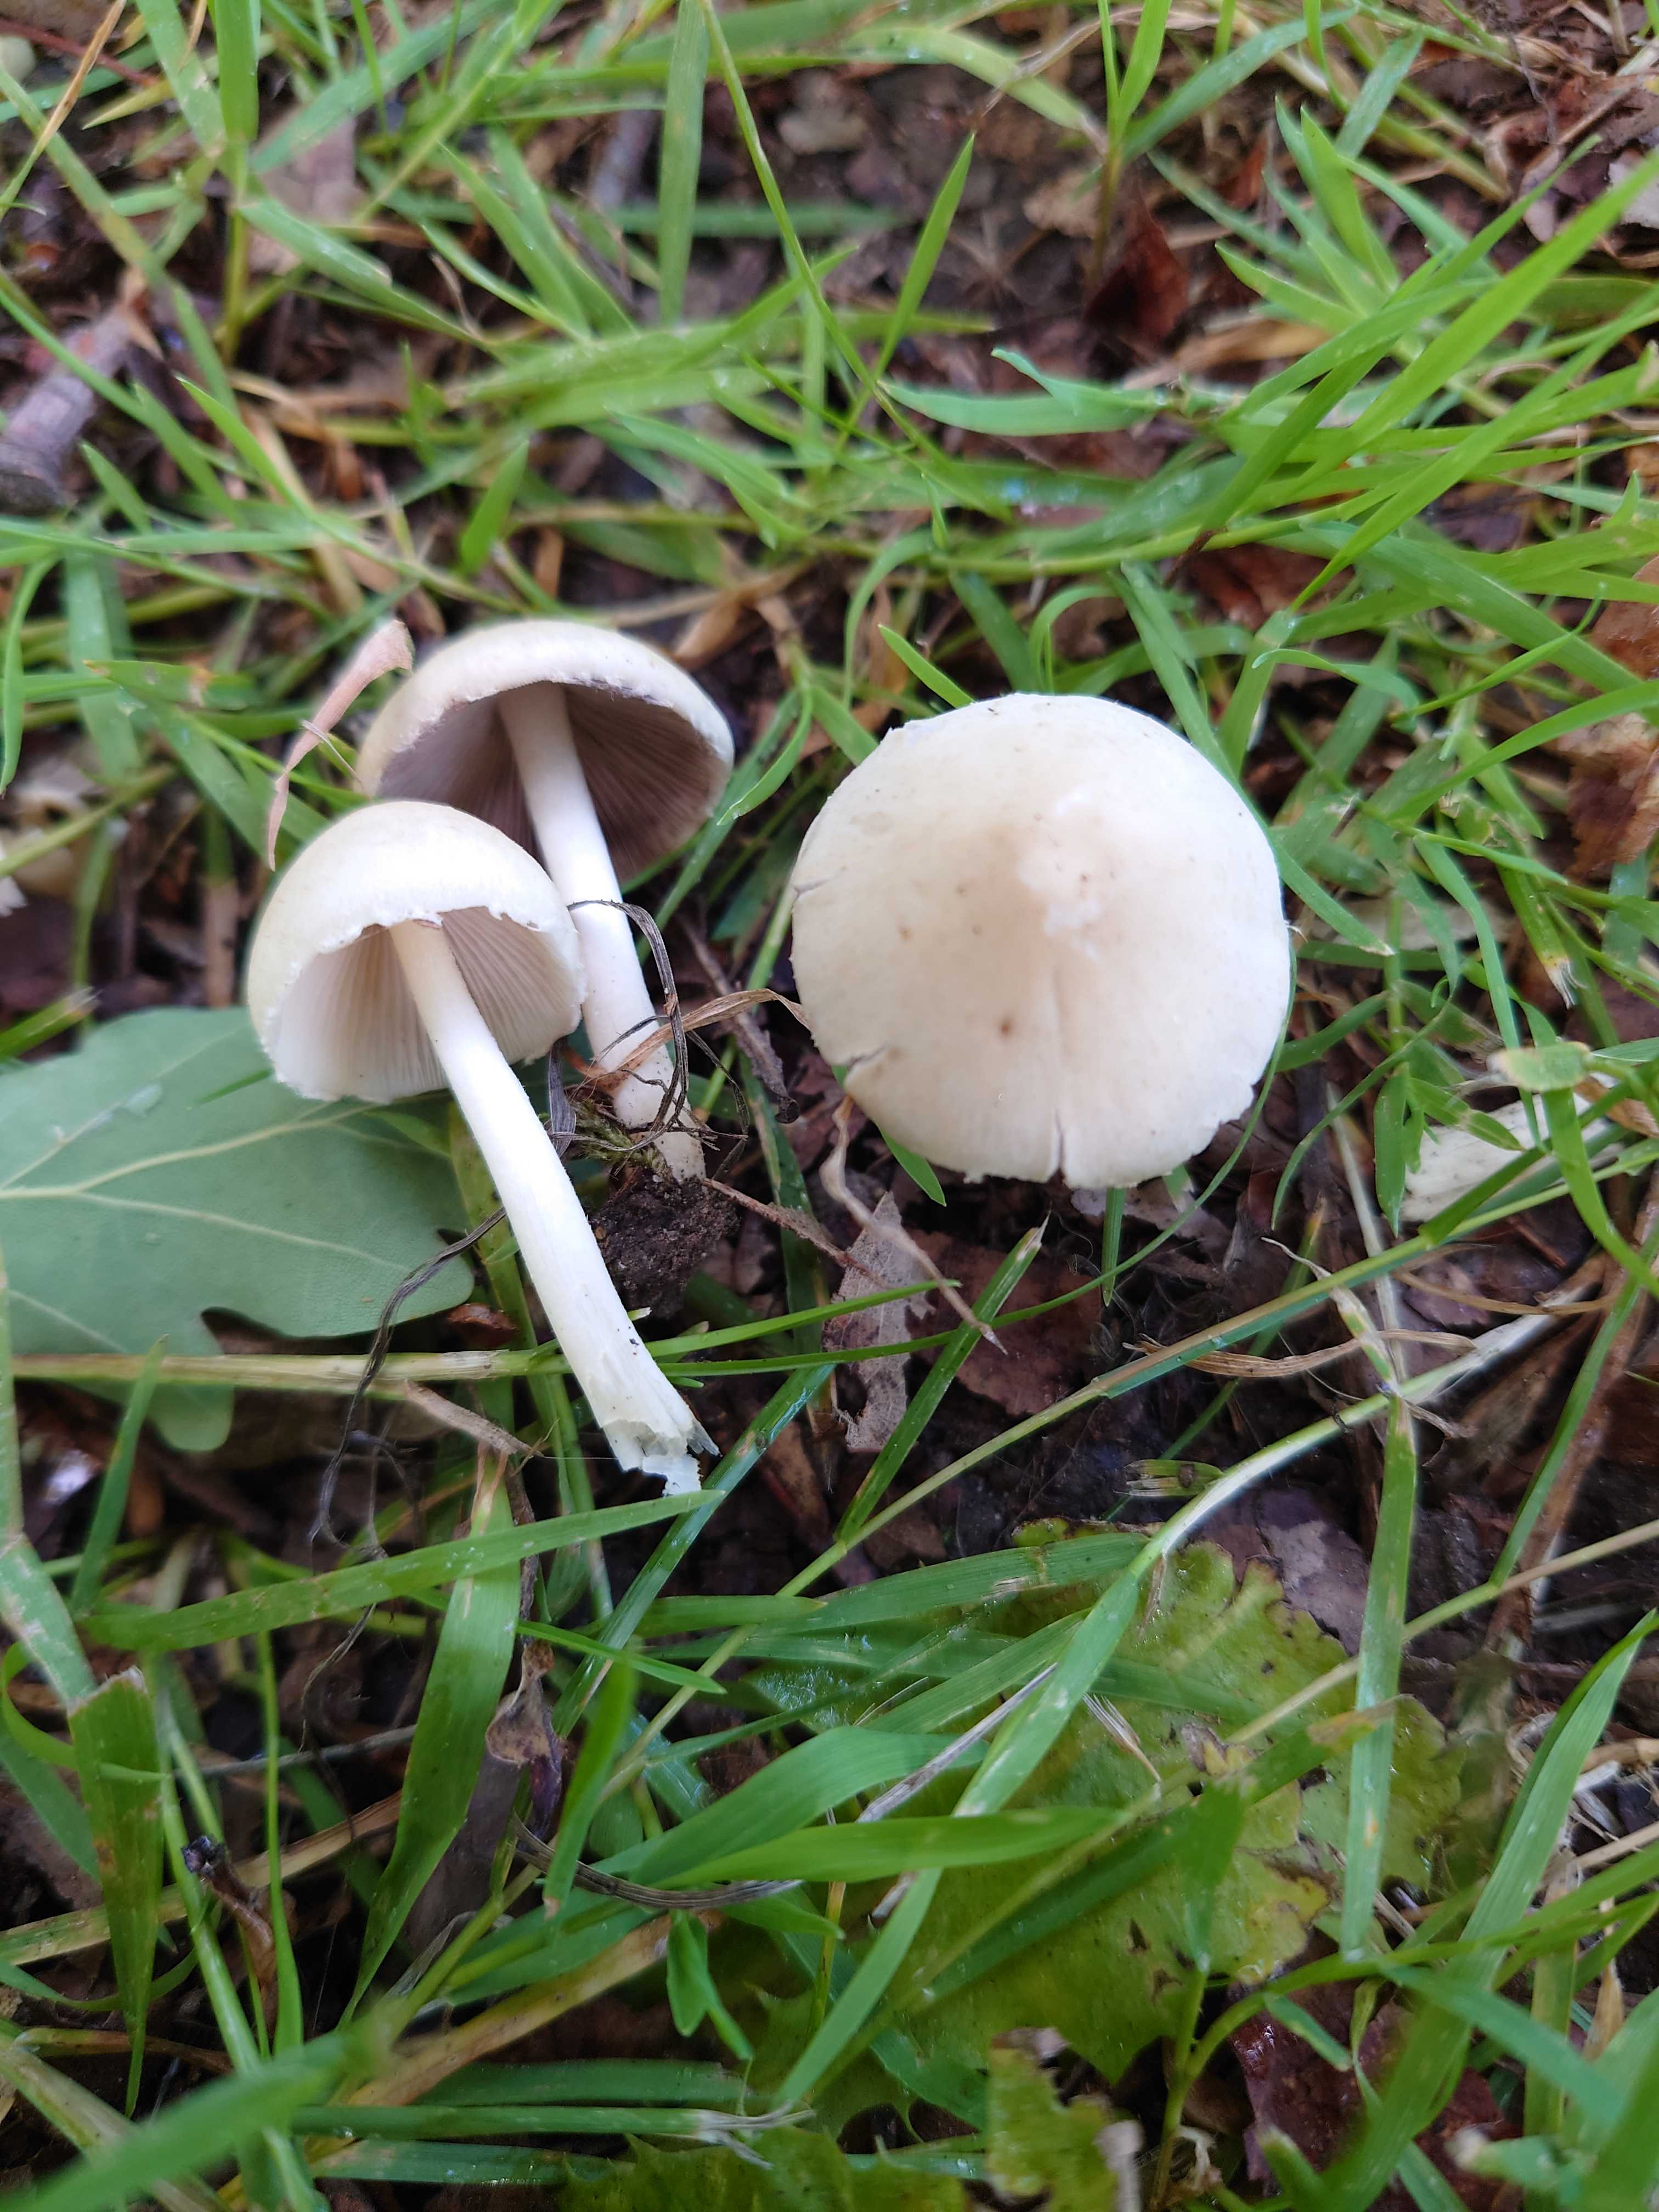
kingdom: Fungi
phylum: Basidiomycota
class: Agaricomycetes
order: Agaricales
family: Psathyrellaceae
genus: Candolleomyces
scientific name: Candolleomyces candolleanus
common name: Candolles mørkhat
